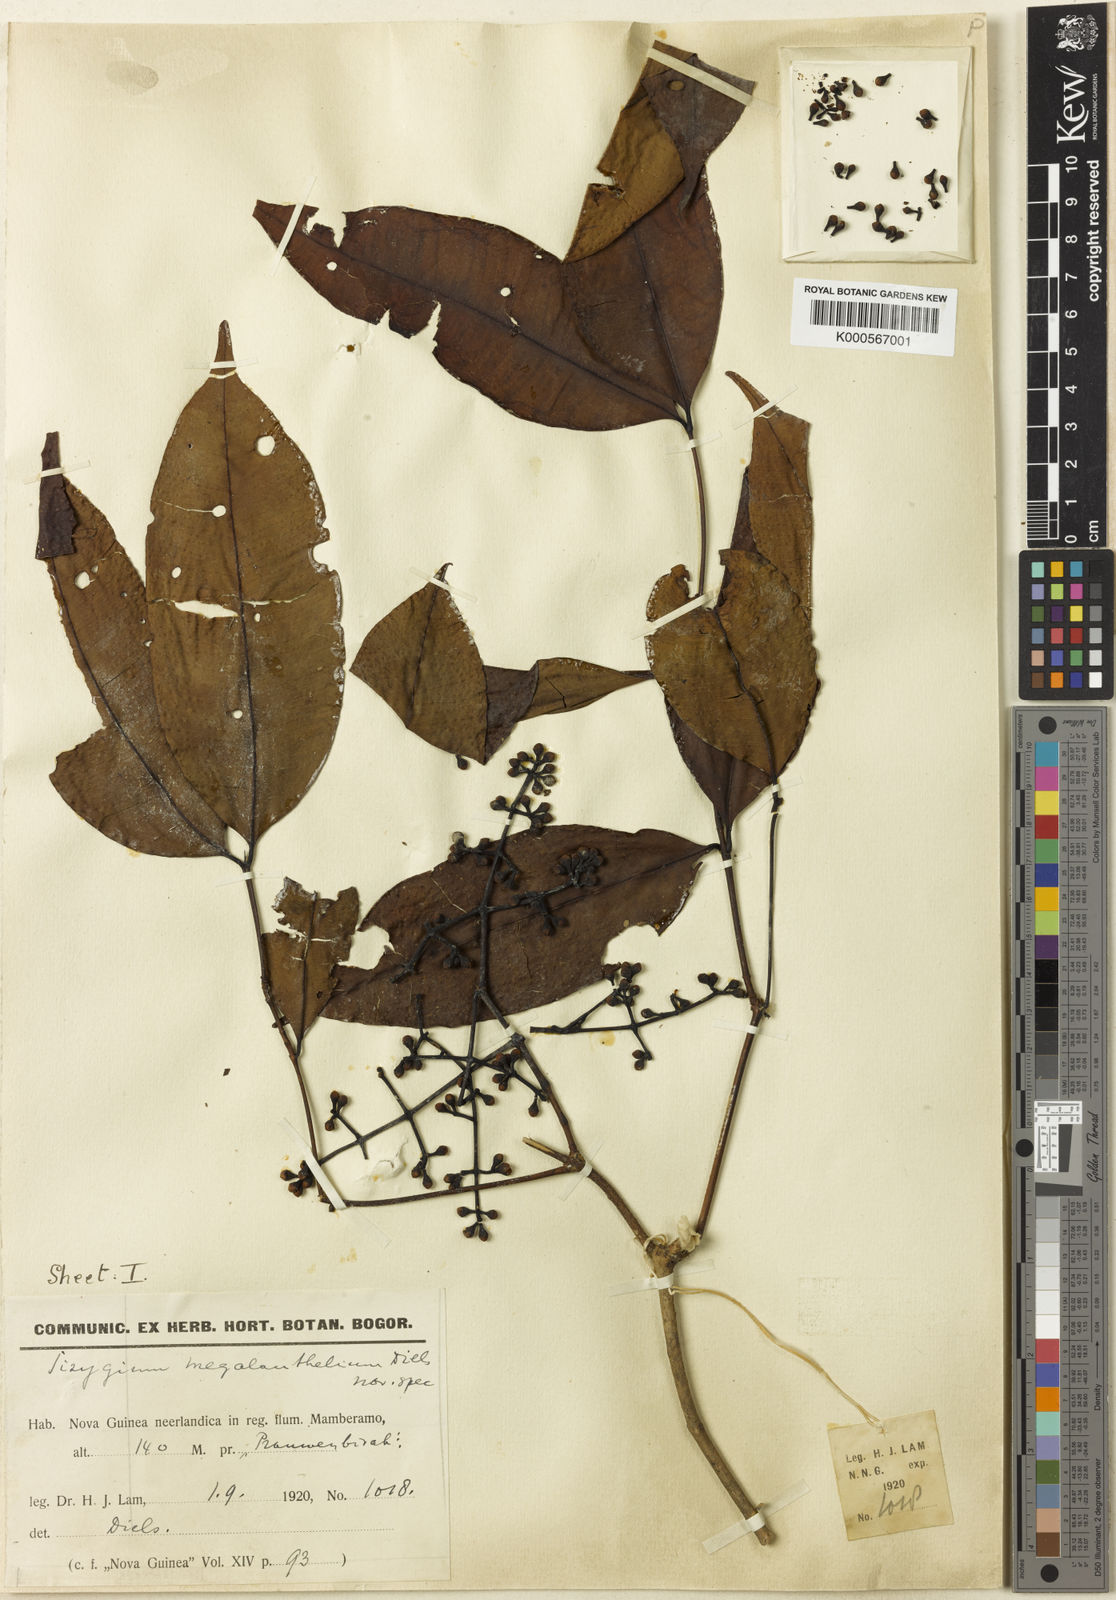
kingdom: Plantae
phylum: Tracheophyta
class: Magnoliopsida
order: Myrtales
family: Myrtaceae
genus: Syzygium
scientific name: Syzygium decipiens
